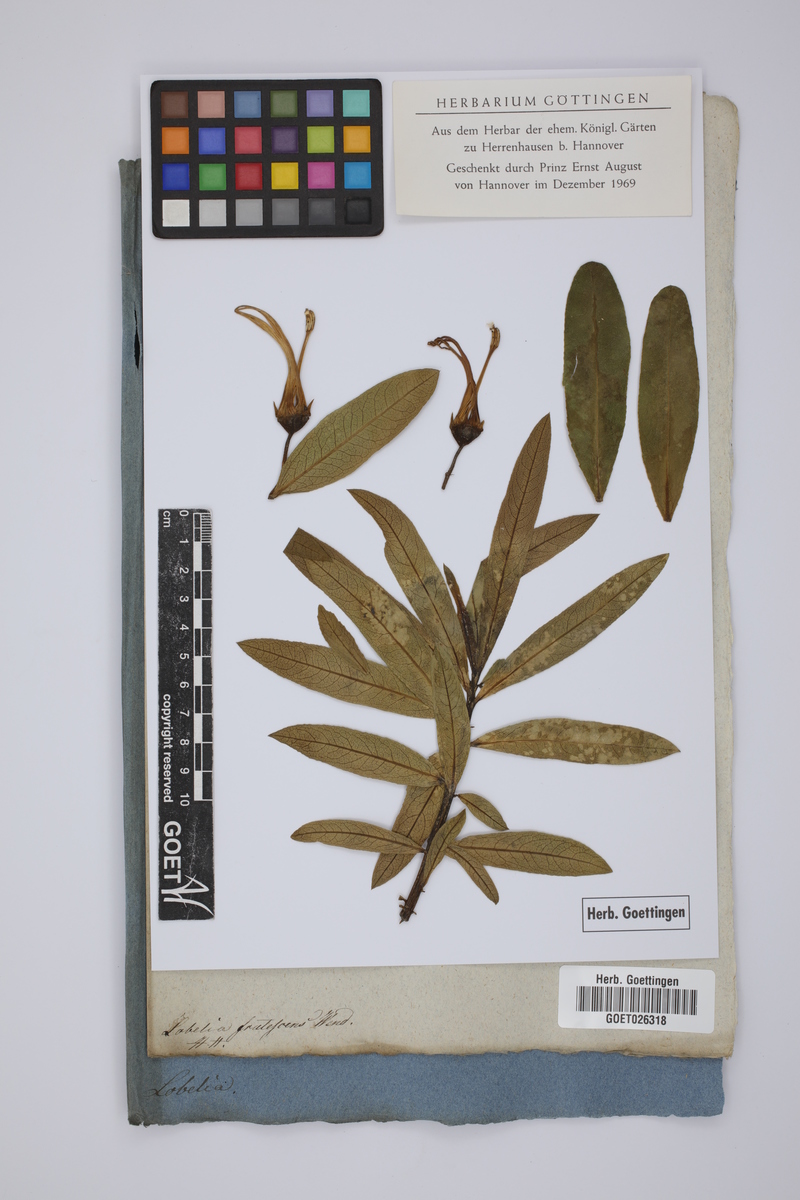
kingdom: Plantae
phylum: Tracheophyta
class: Magnoliopsida
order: Asterales
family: Goodeniaceae
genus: Scaevola
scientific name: Scaevola taccada
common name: Sea lettucetree
